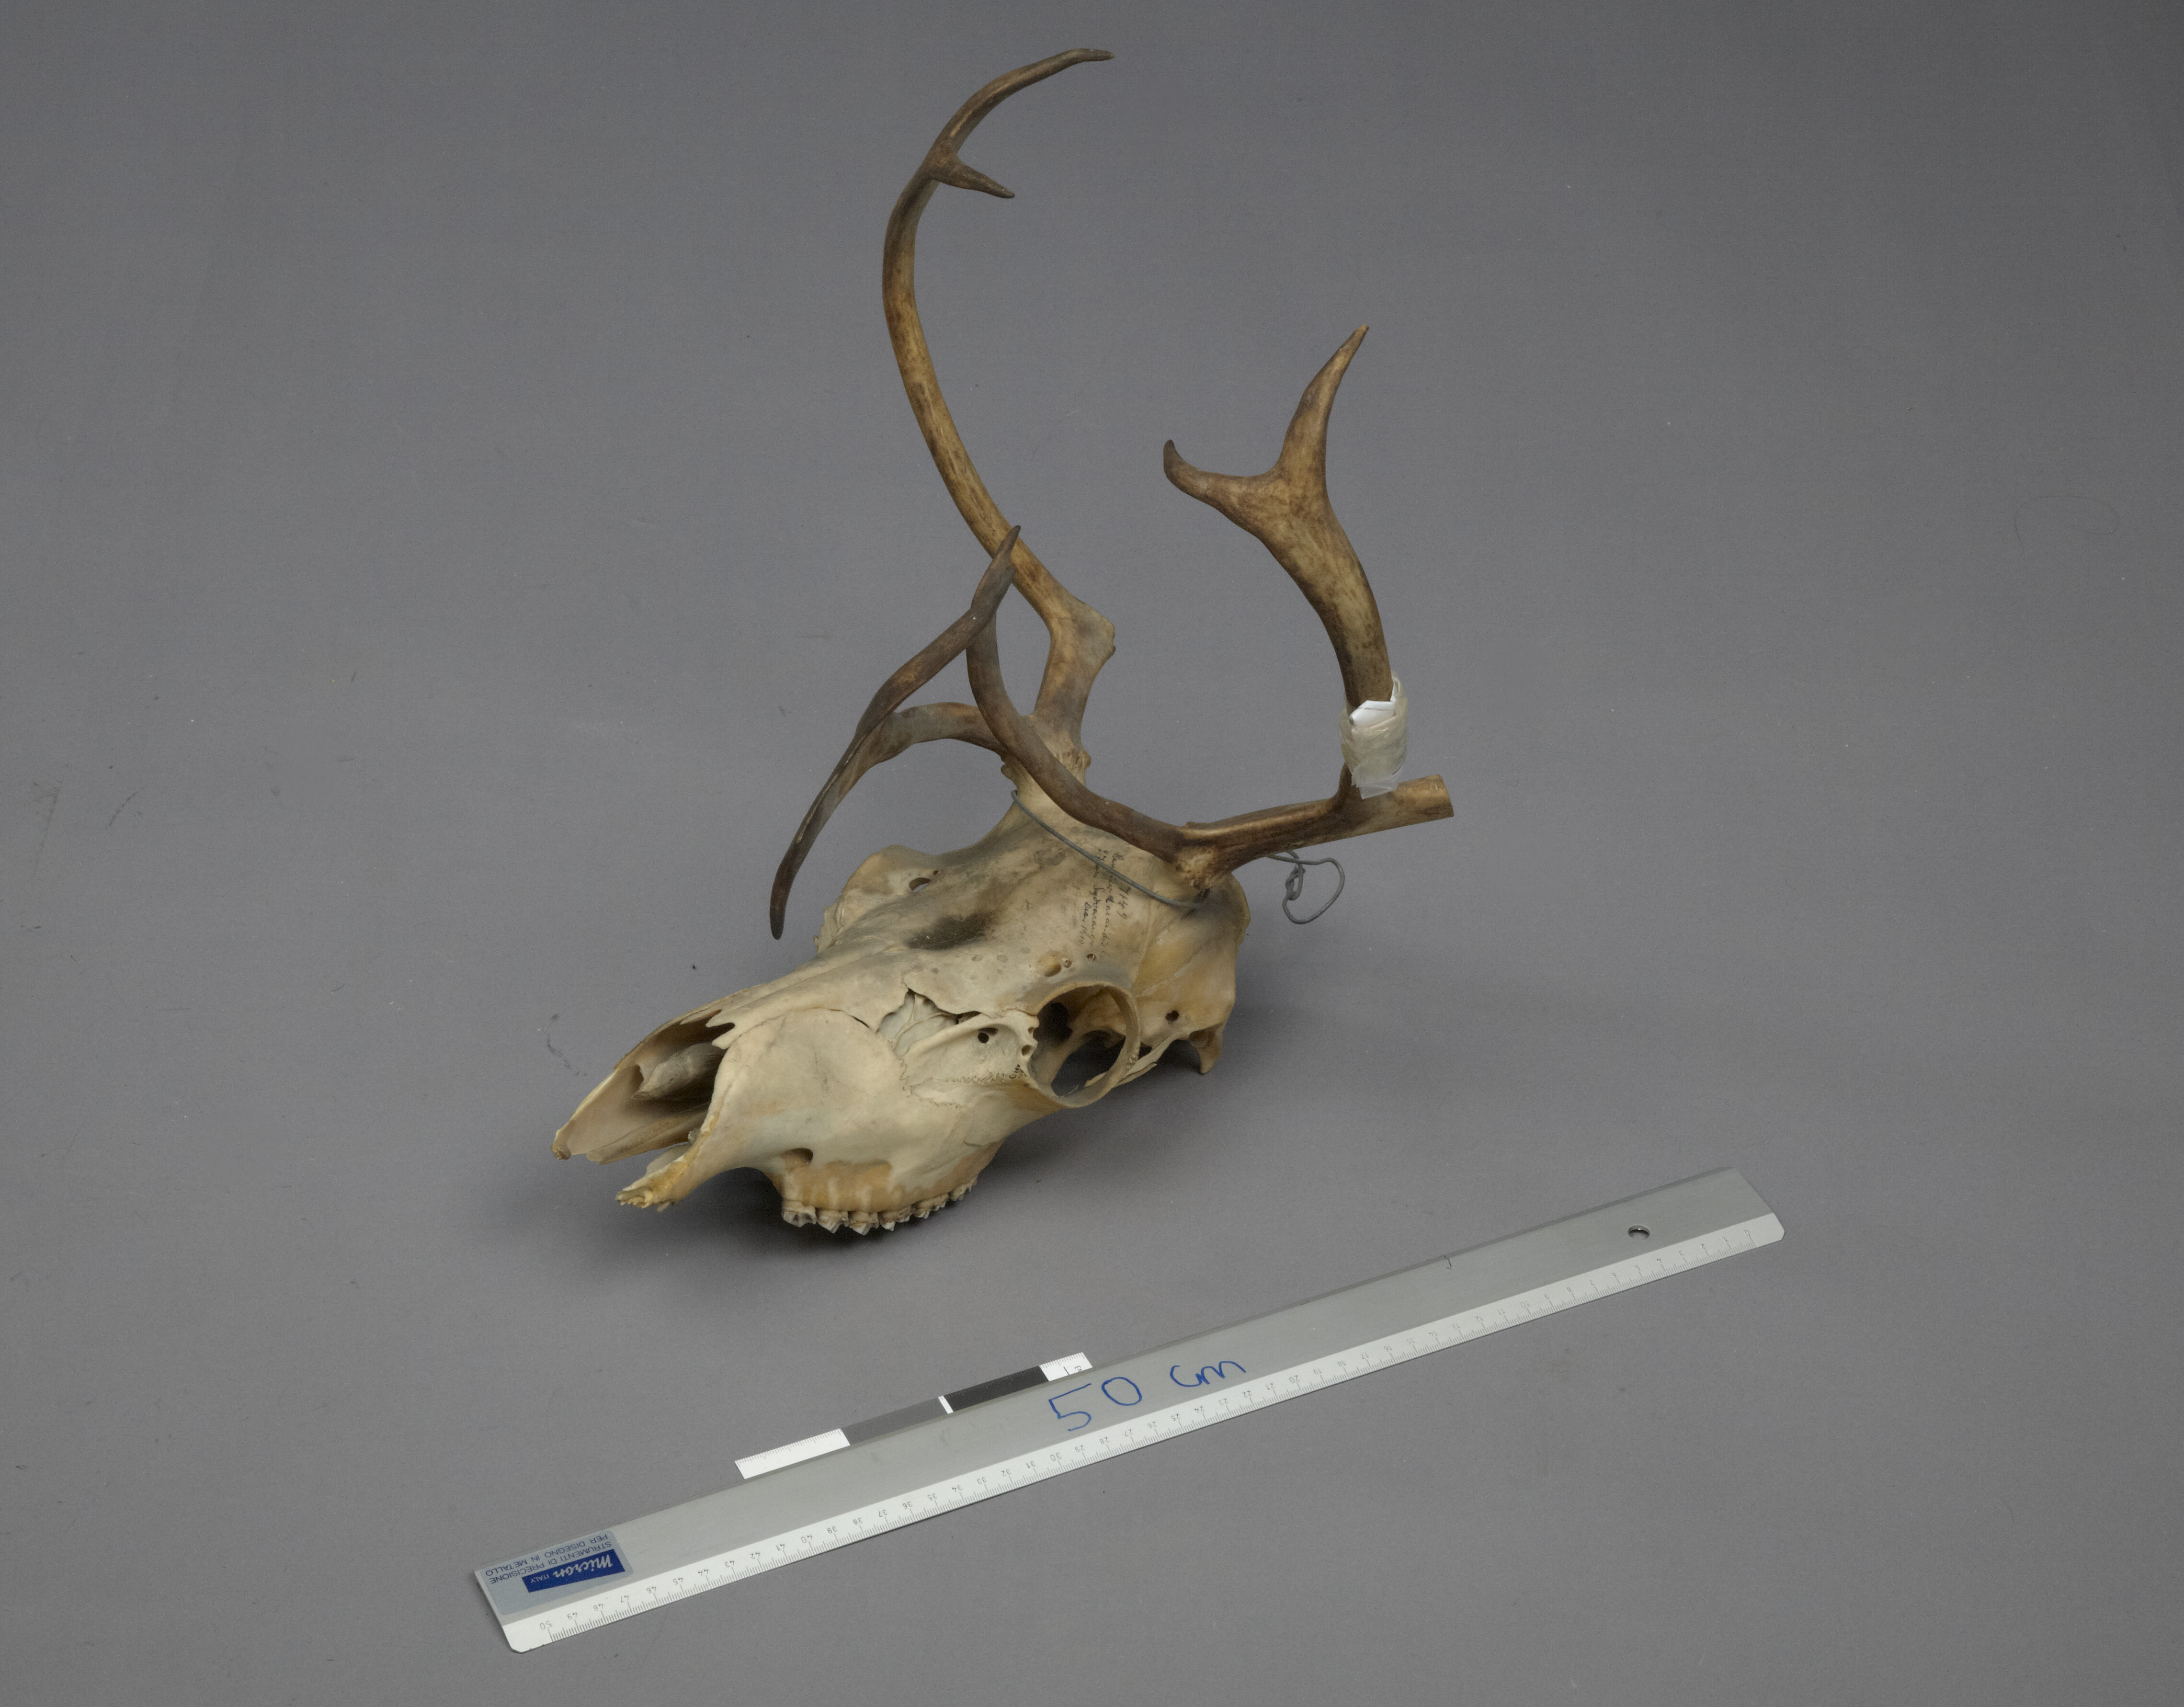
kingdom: Animalia
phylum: Chordata
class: Mammalia
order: Artiodactyla
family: Cervidae
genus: Rangifer
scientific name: Rangifer tarandus
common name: Reindeer
